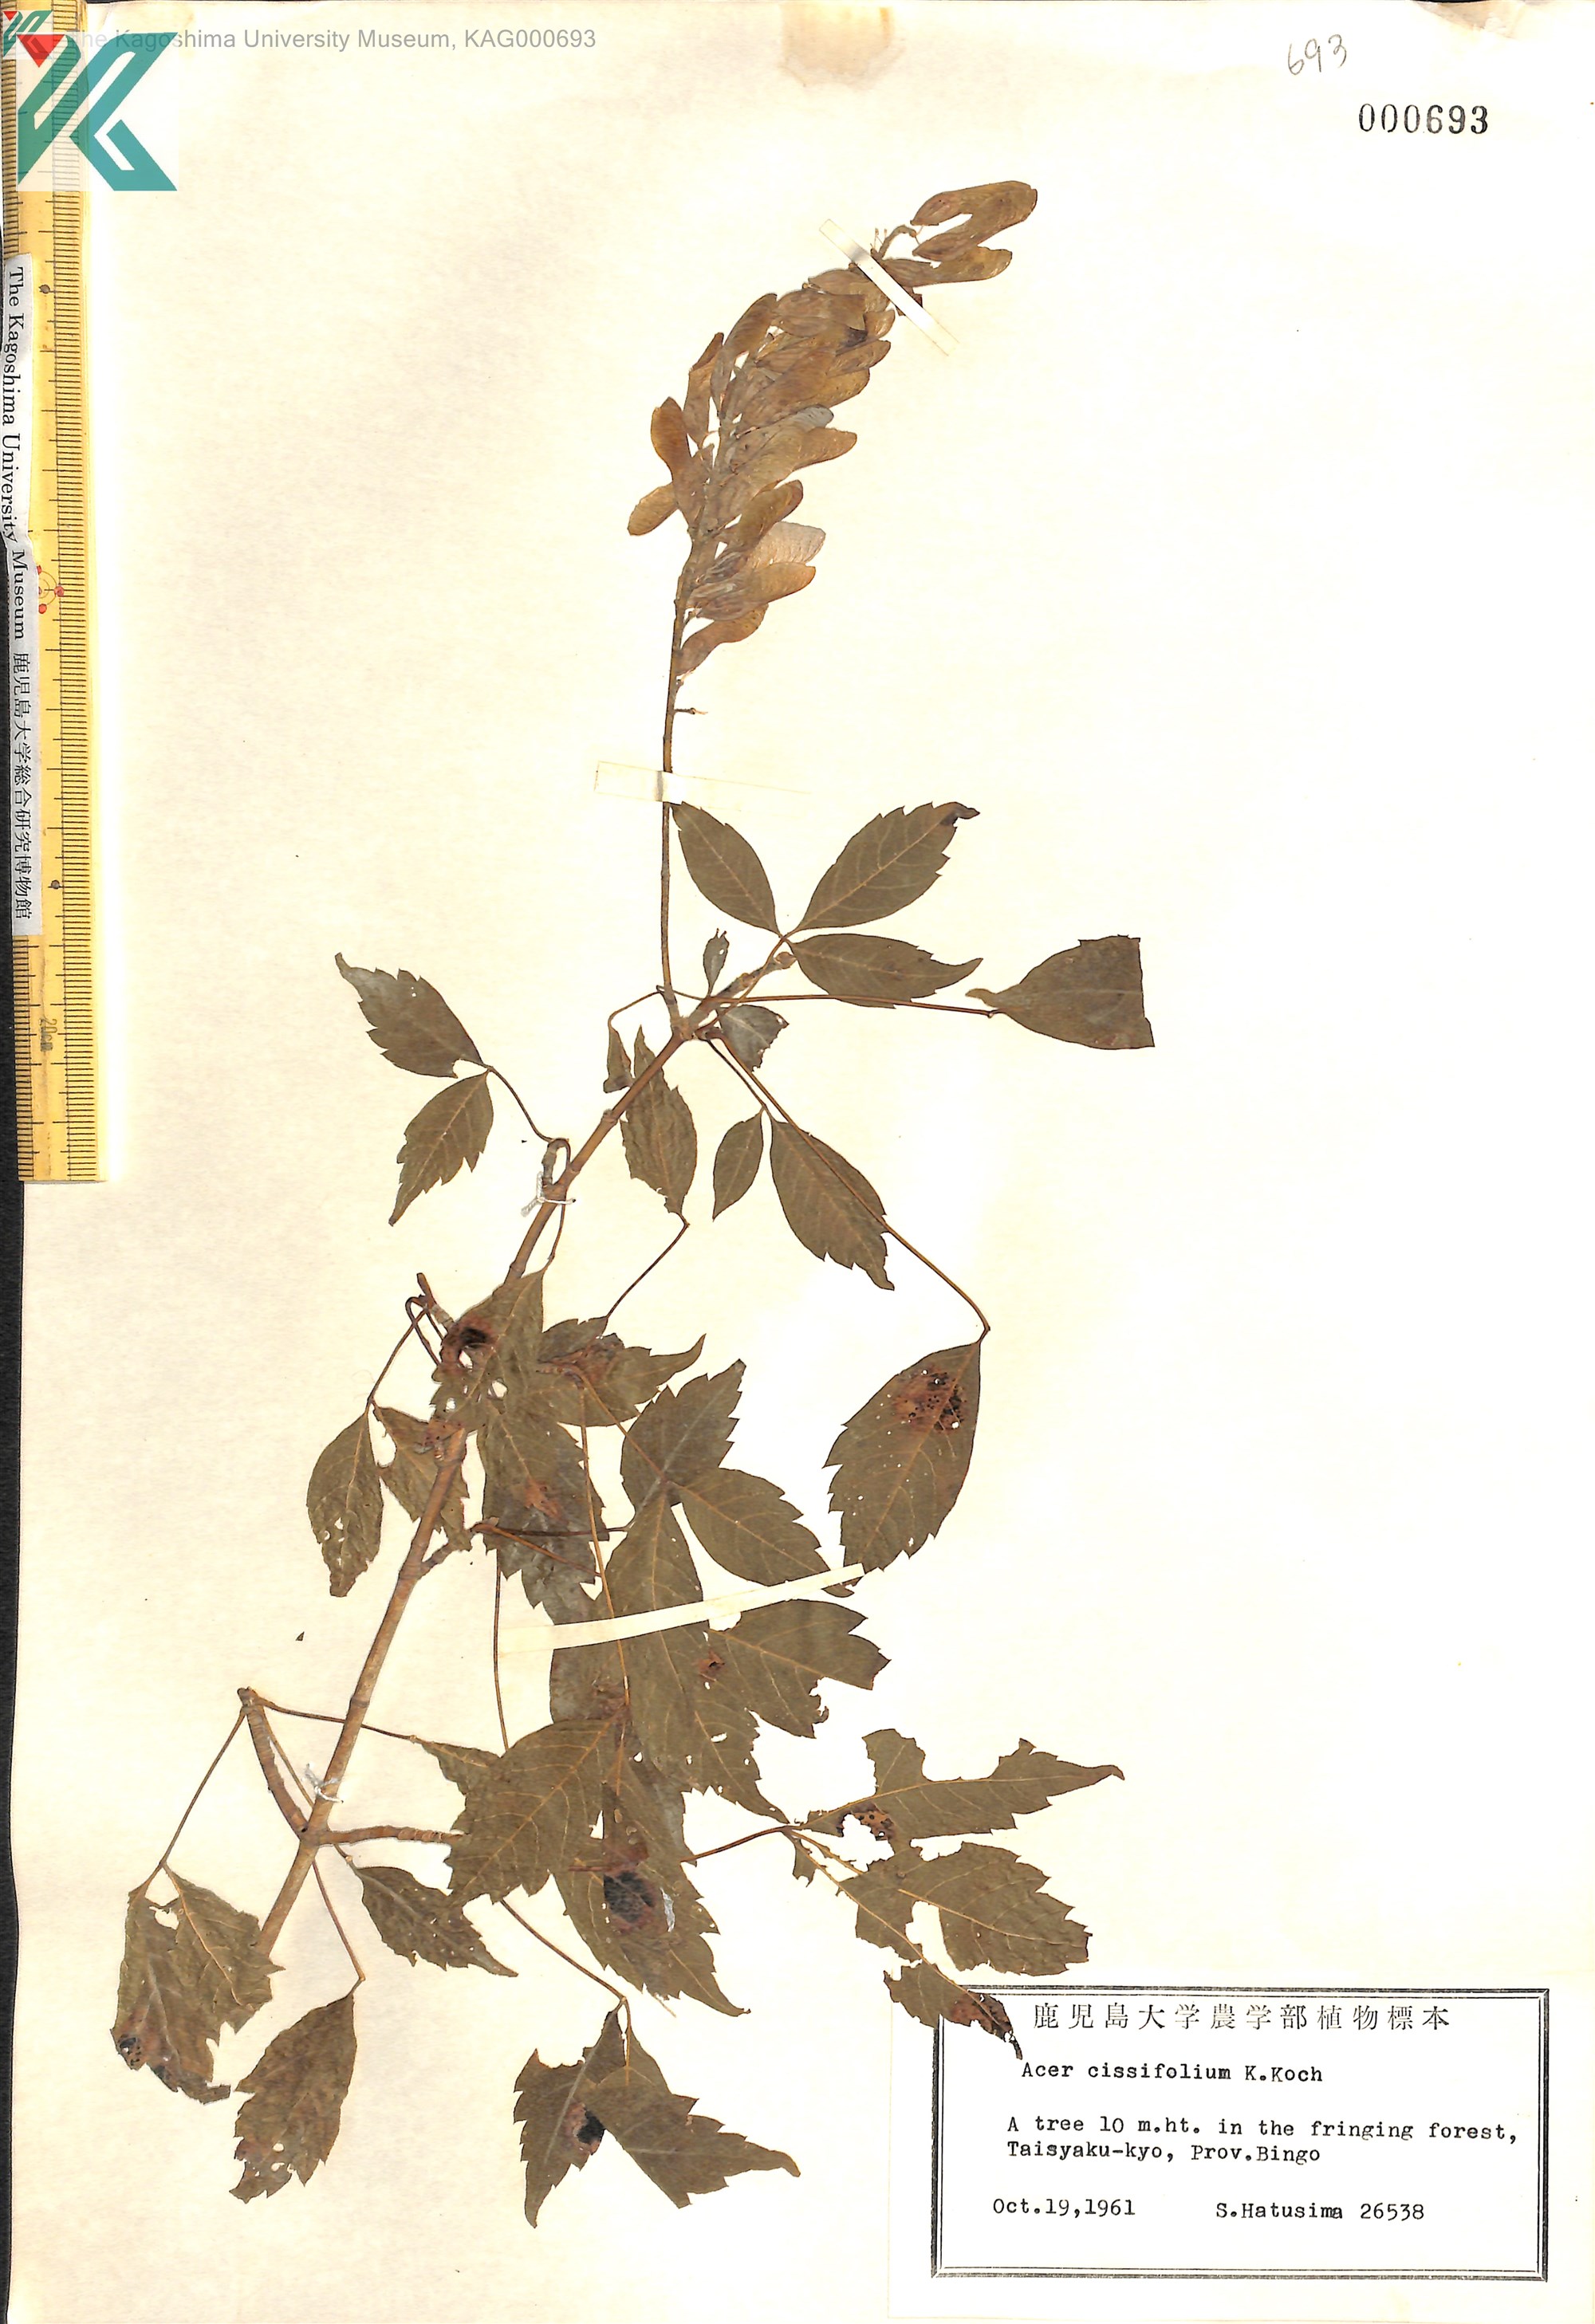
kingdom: Plantae
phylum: Tracheophyta
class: Magnoliopsida
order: Sapindales
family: Sapindaceae
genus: Acer
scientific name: Acer cissifolium
